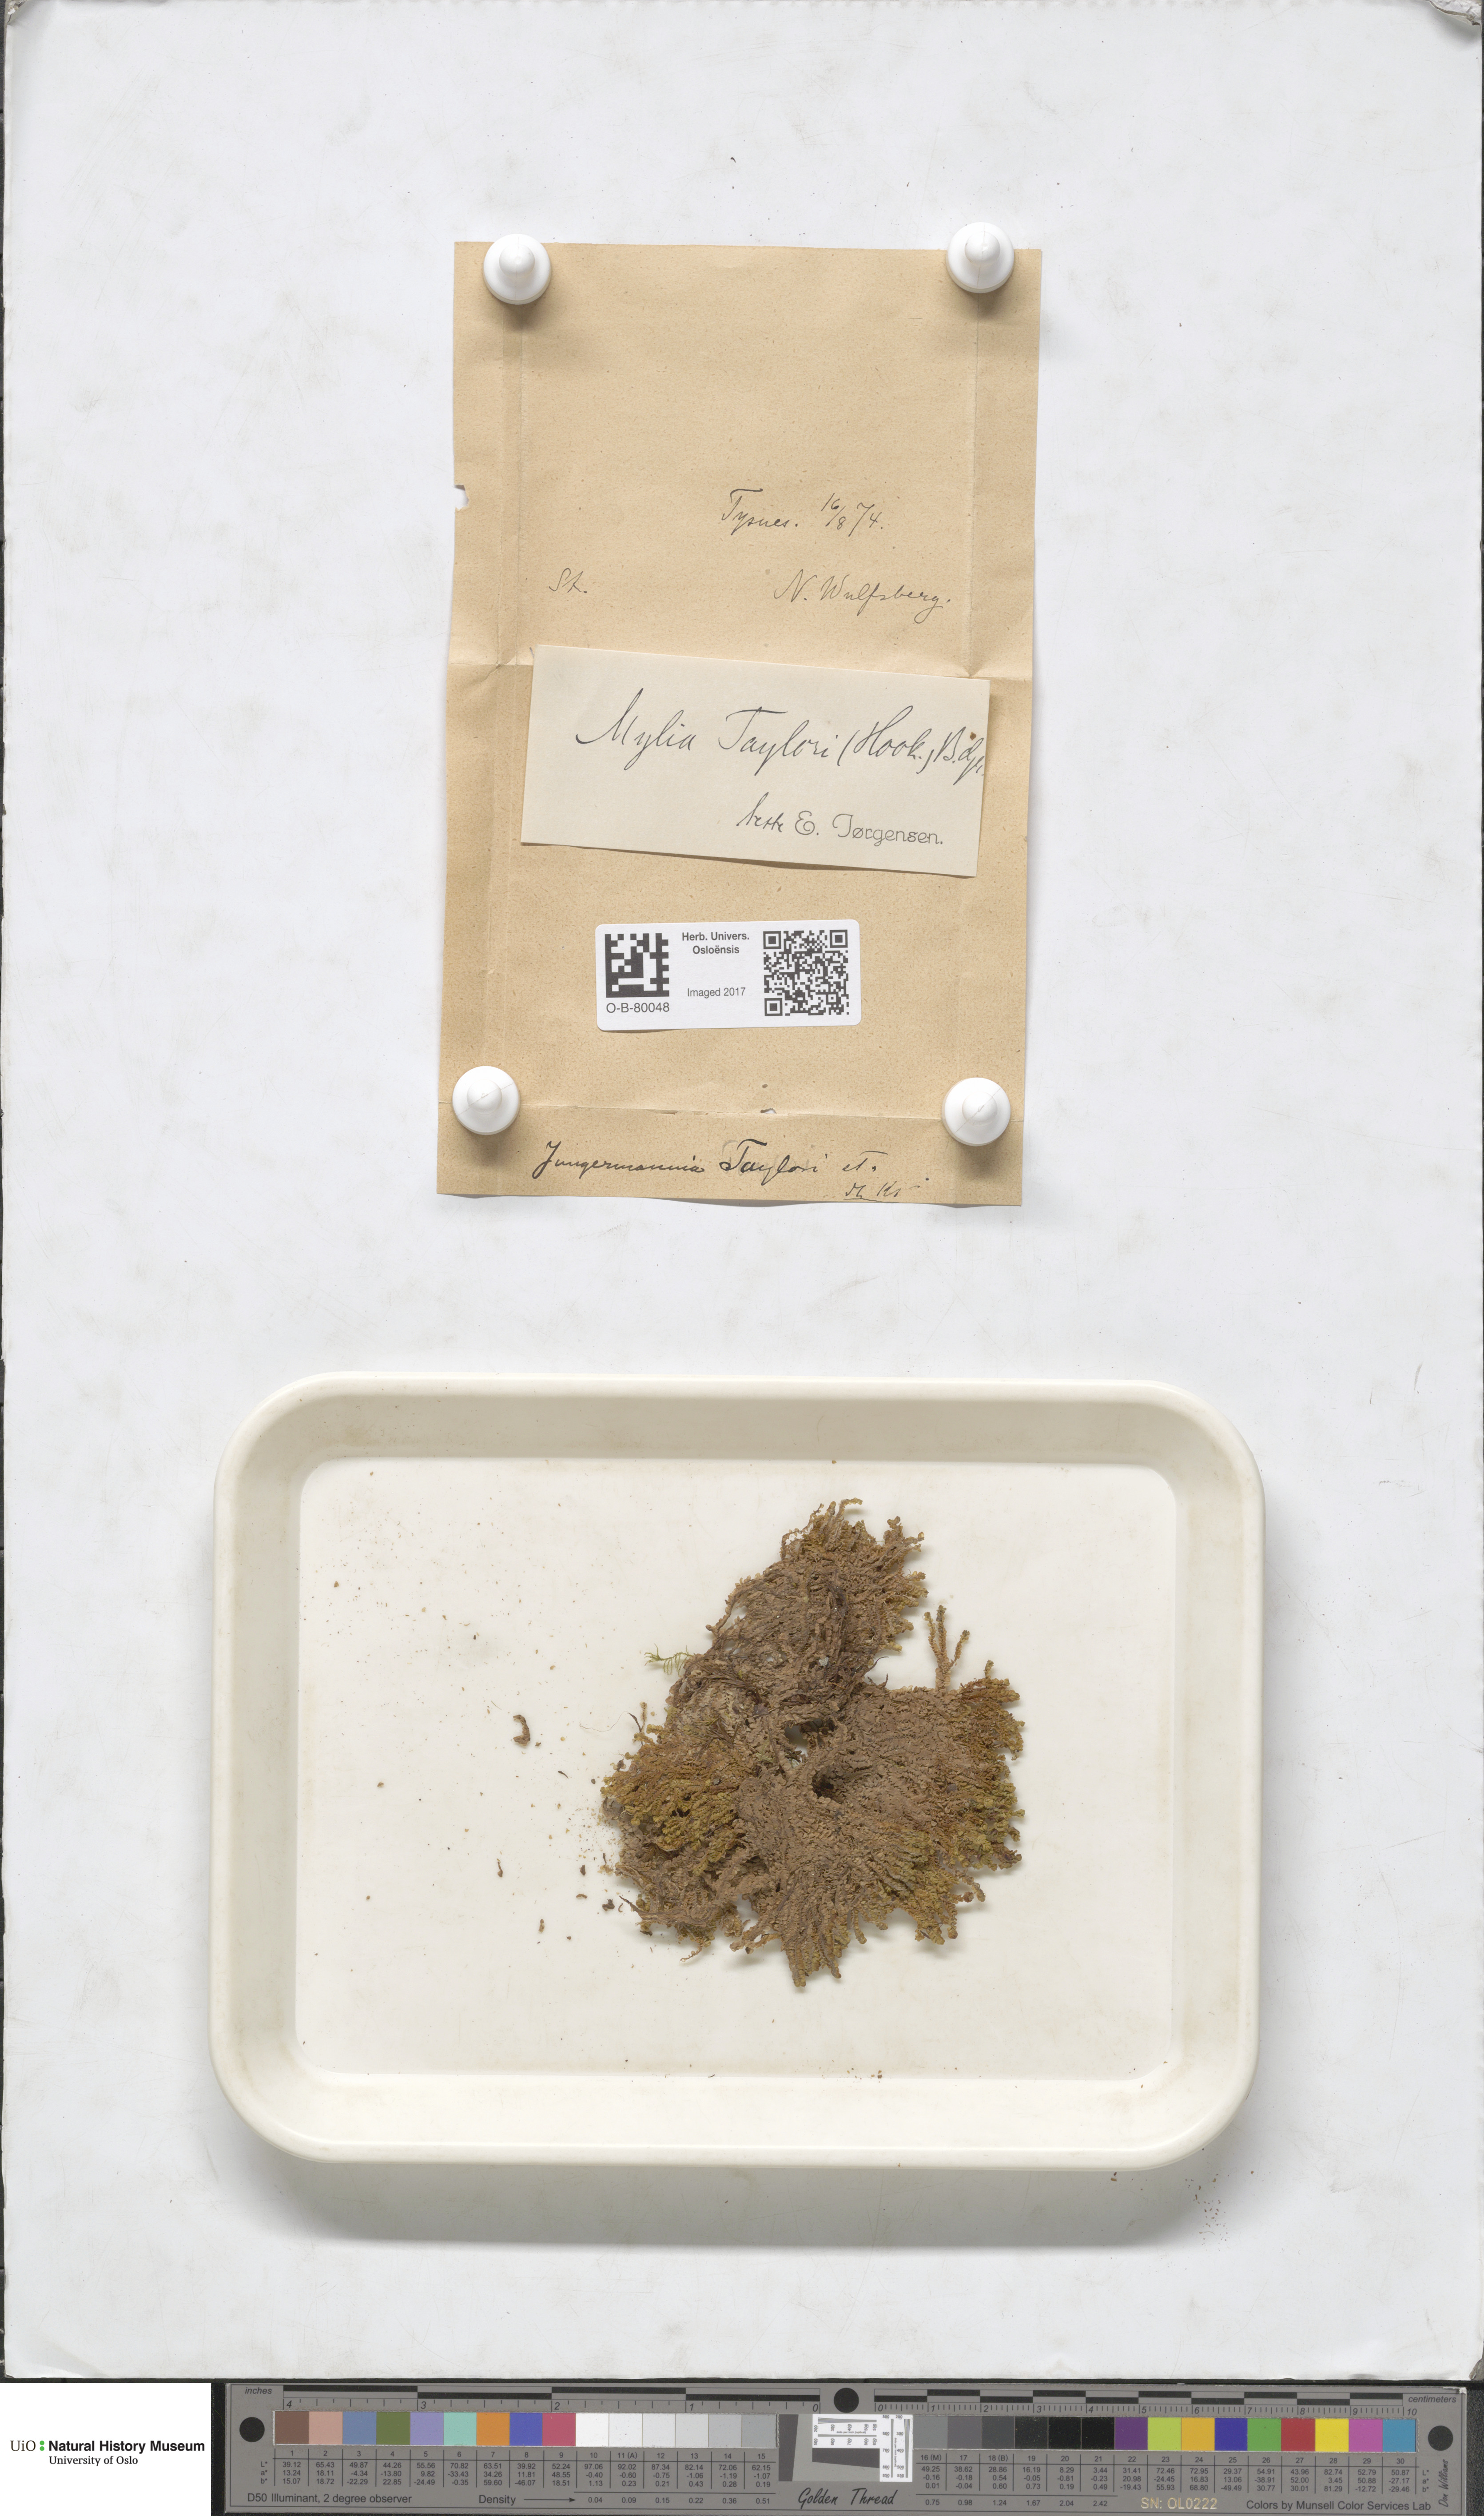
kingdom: Plantae
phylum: Marchantiophyta
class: Jungermanniopsida
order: Jungermanniales
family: Myliaceae
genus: Mylia
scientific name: Mylia taylorii
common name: Taylor s flapwort
